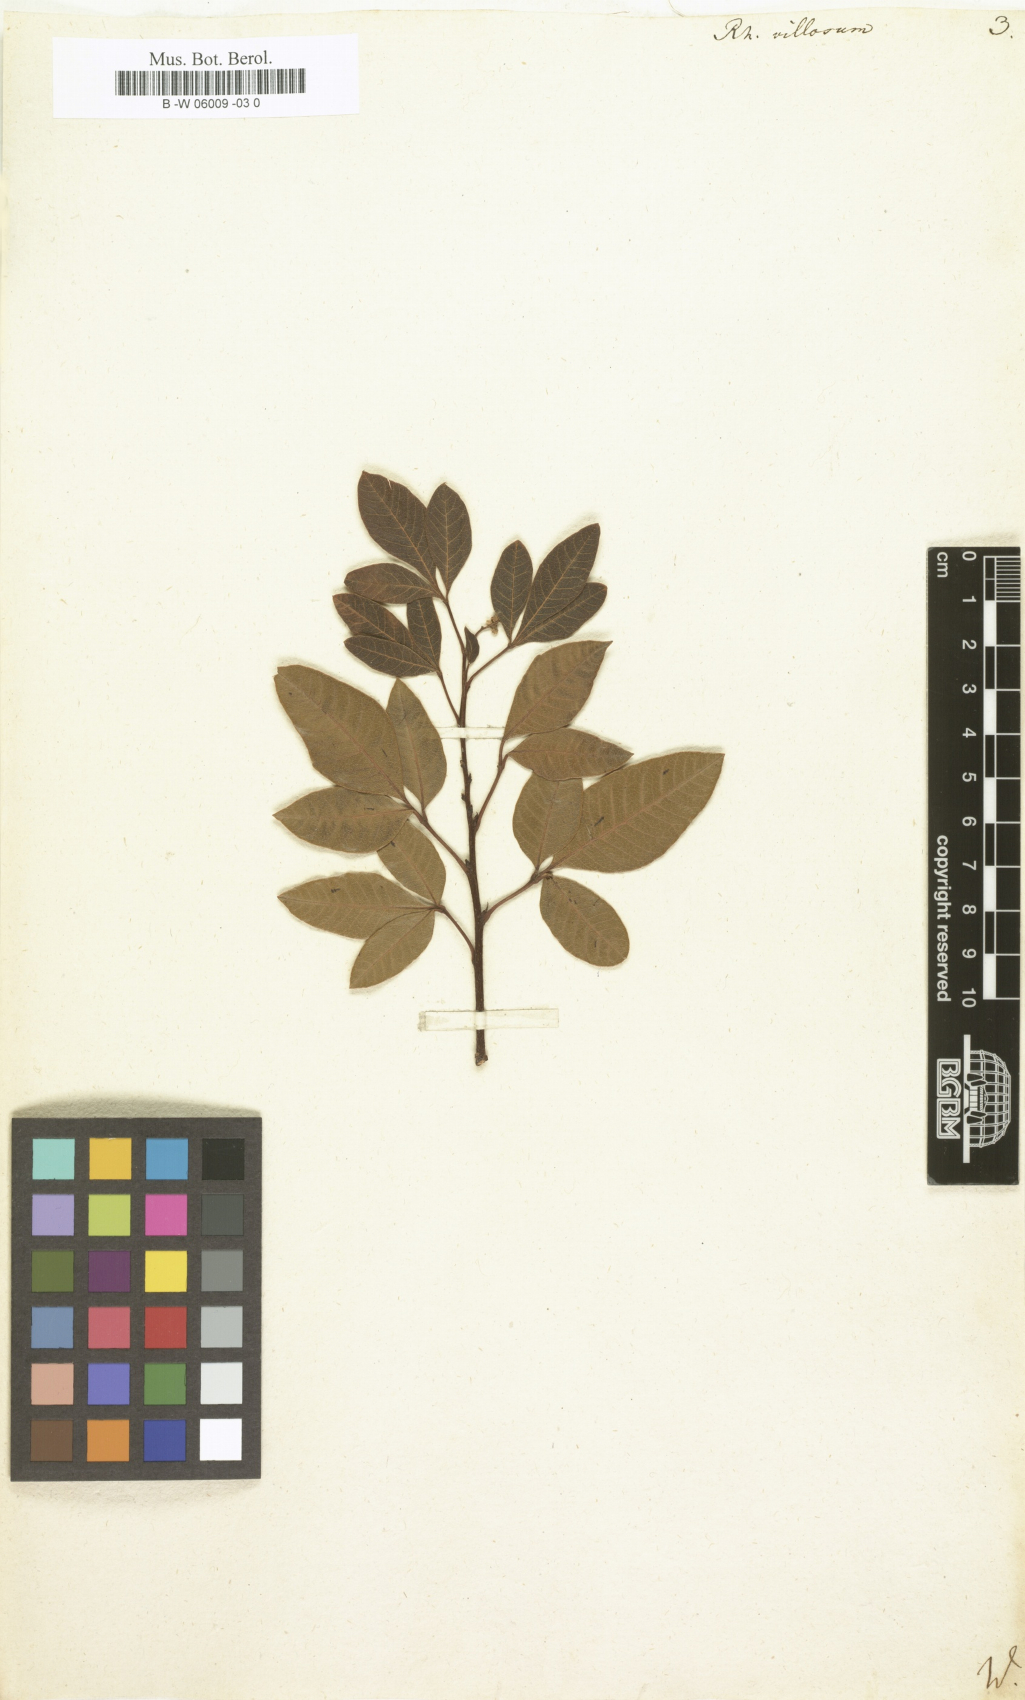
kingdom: Plantae
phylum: Tracheophyta
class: Magnoliopsida
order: Sapindales
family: Anacardiaceae
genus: Searsia
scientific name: Searsia
